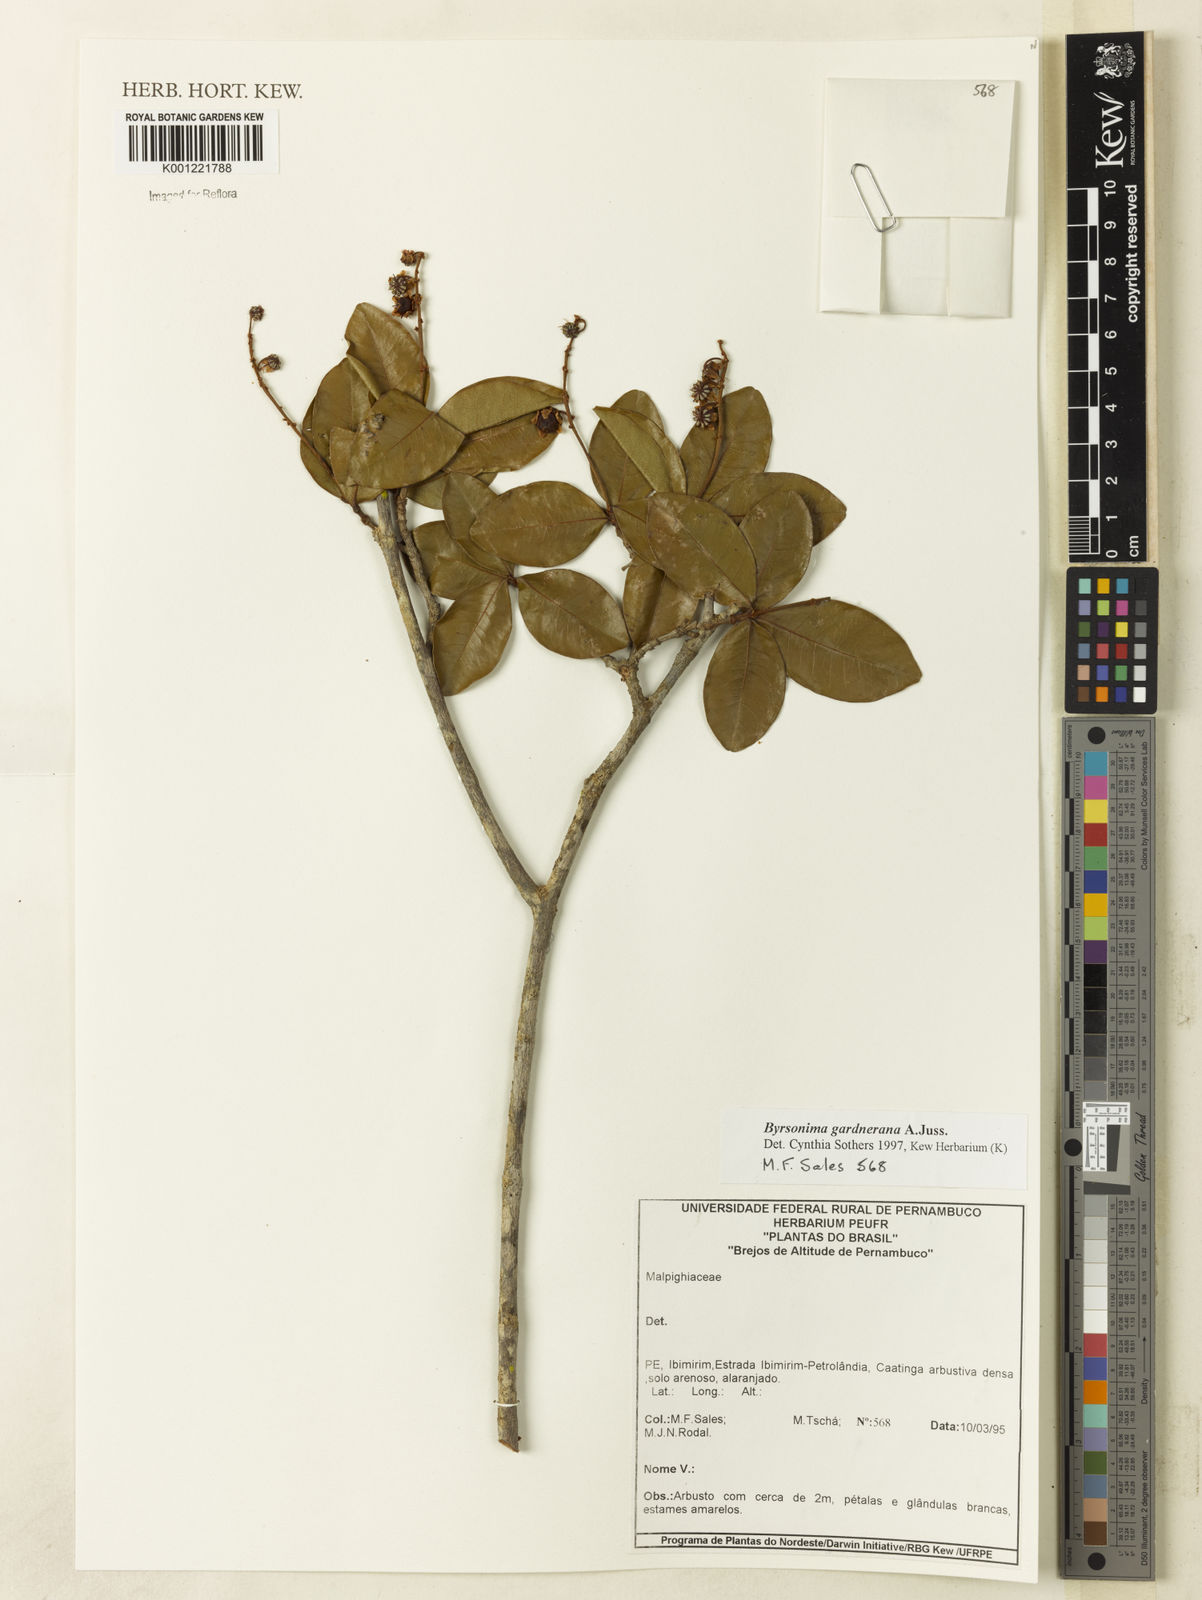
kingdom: Plantae
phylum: Tracheophyta
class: Magnoliopsida
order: Malpighiales
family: Malpighiaceae
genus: Byrsonima
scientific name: Byrsonima gardneriana
